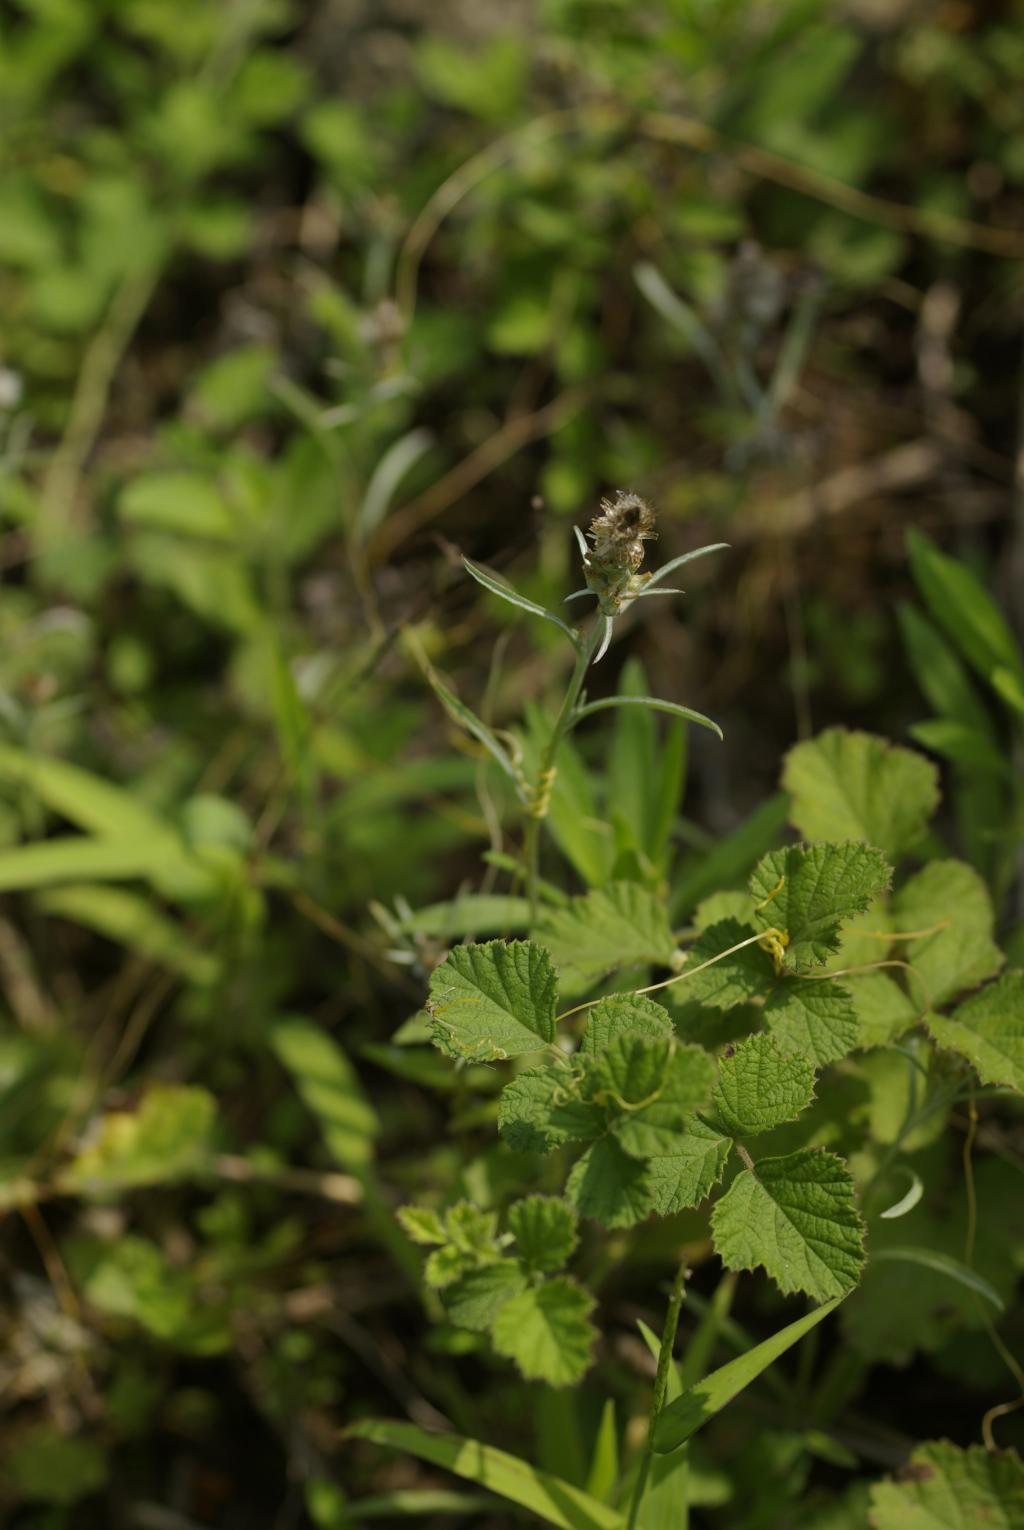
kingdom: Plantae
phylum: Tracheophyta
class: Magnoliopsida
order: Asterales
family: Asteraceae
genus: Gamochaeta
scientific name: Gamochaeta purpurea
